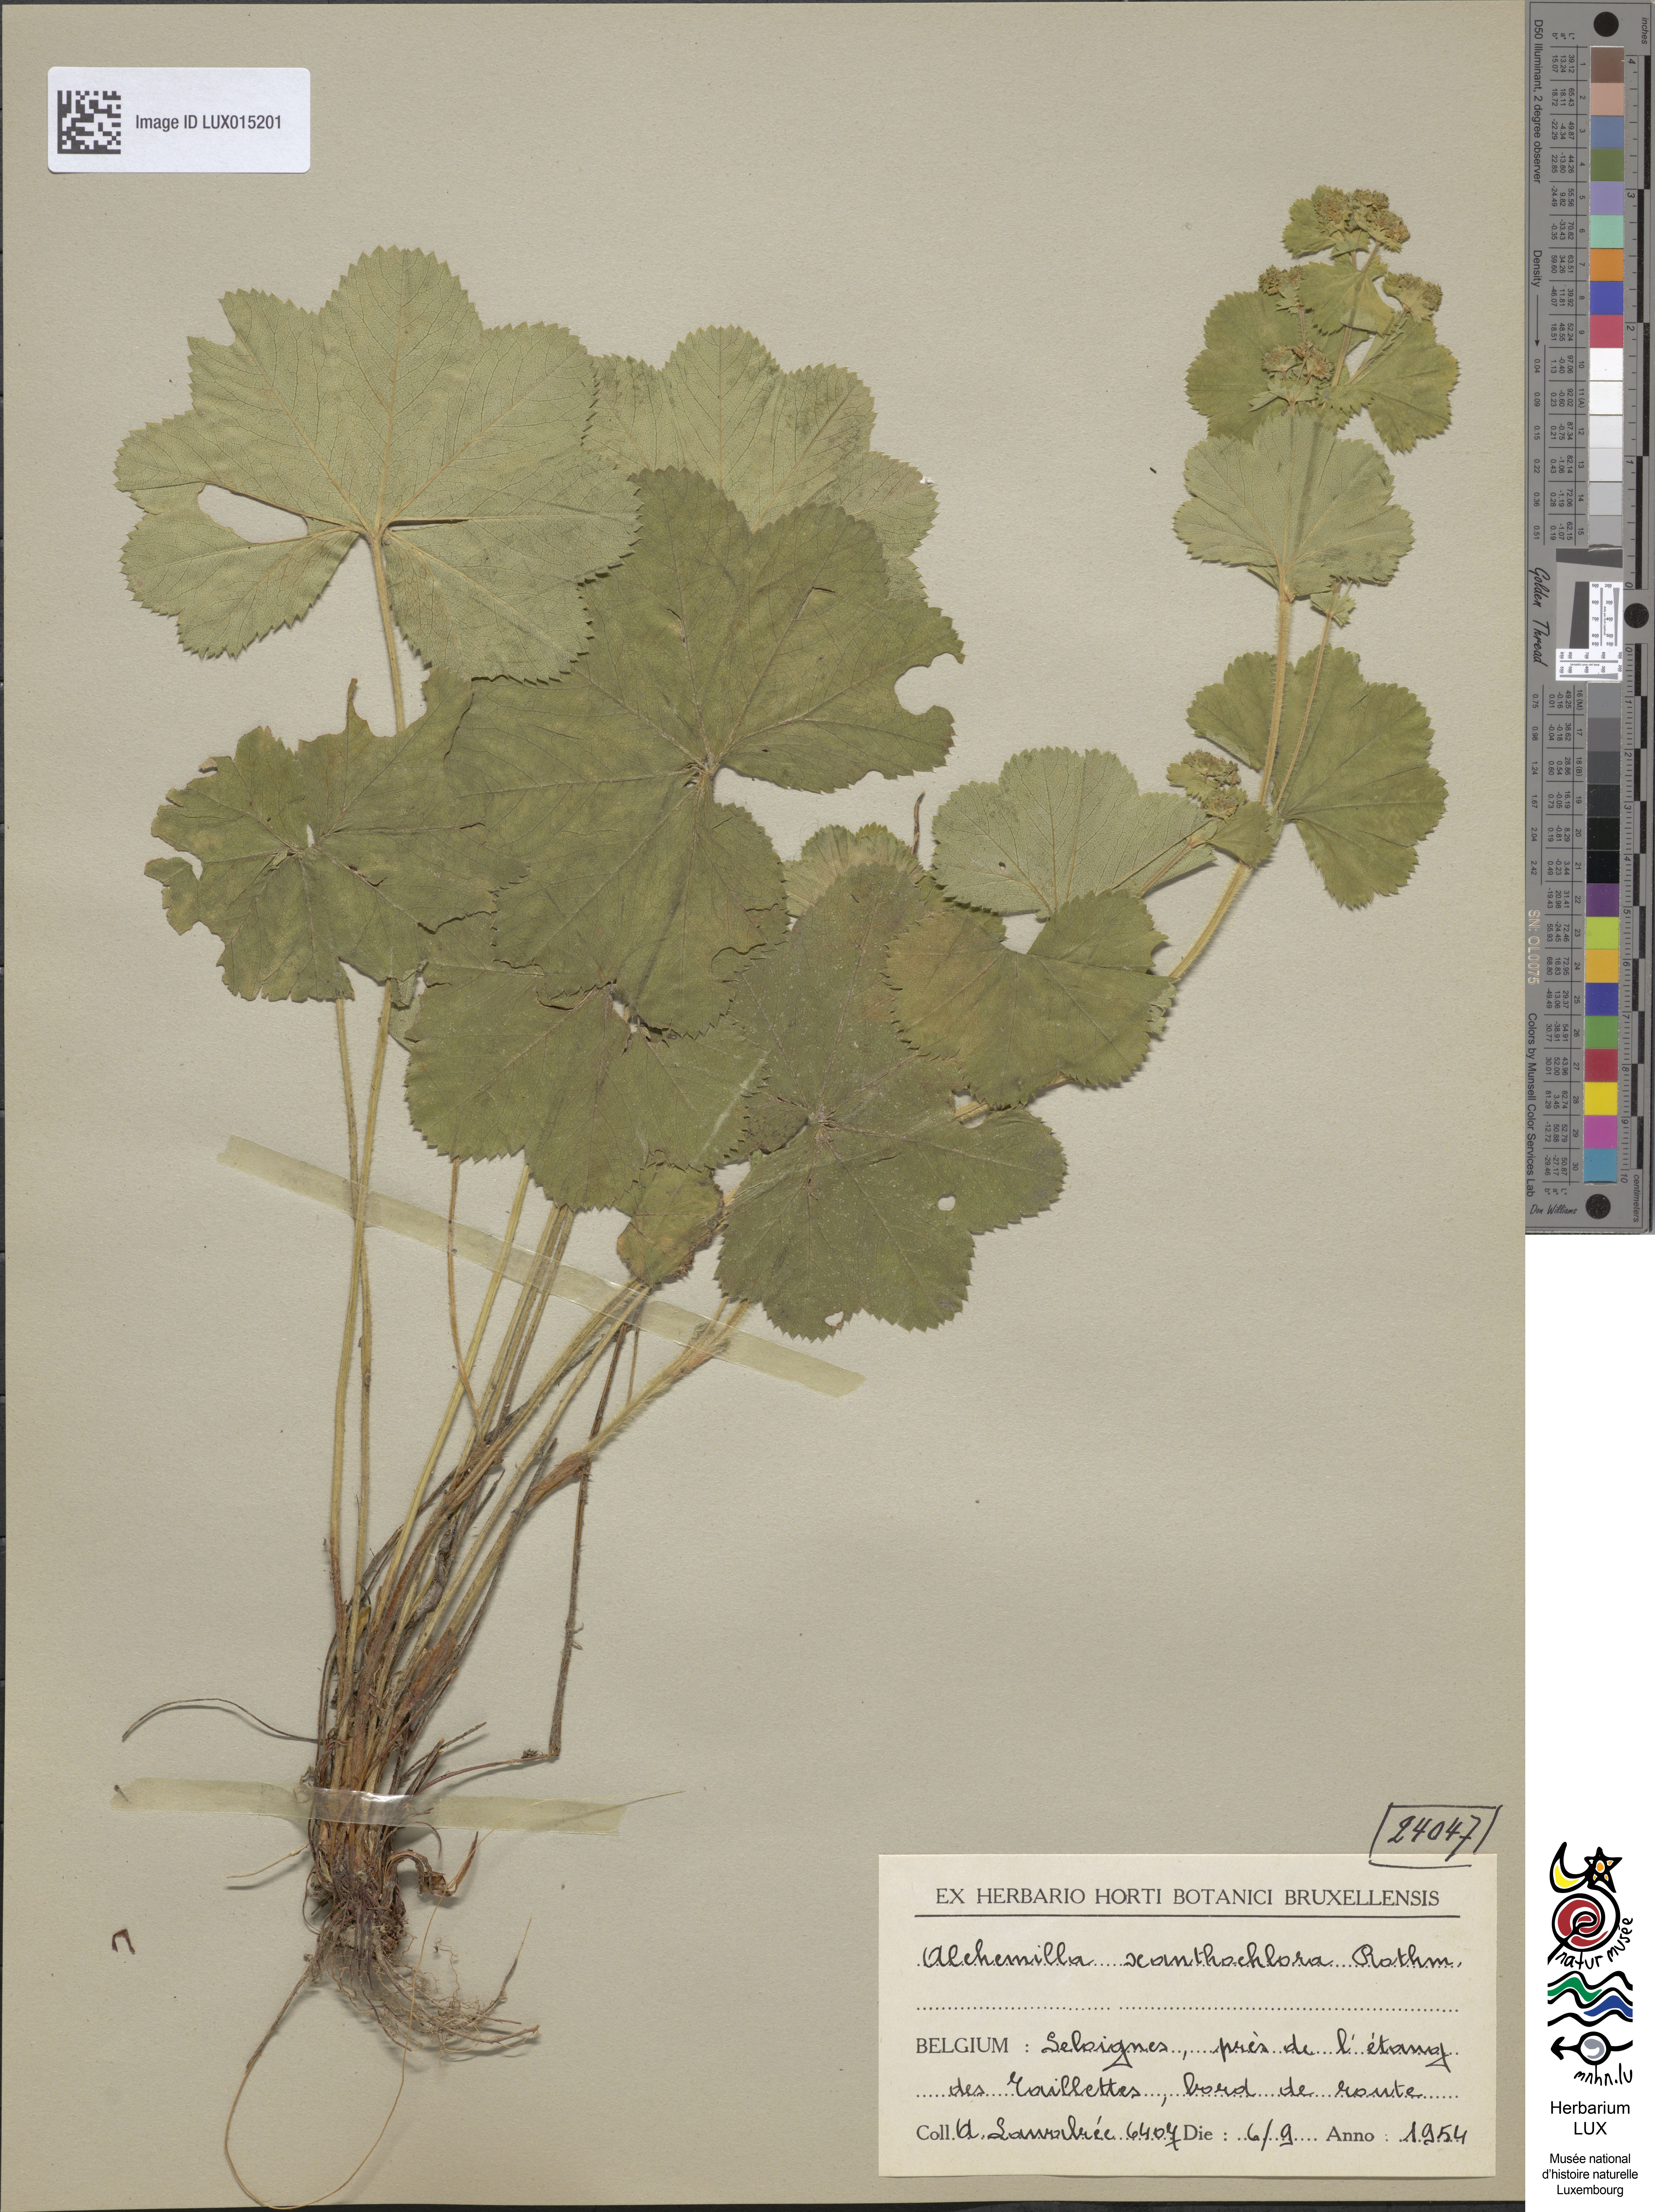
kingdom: Plantae
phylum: Tracheophyta
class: Magnoliopsida
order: Rosales
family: Rosaceae
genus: Alchemilla
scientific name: Alchemilla xanthochlora
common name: Intermediate lady's-mantle
